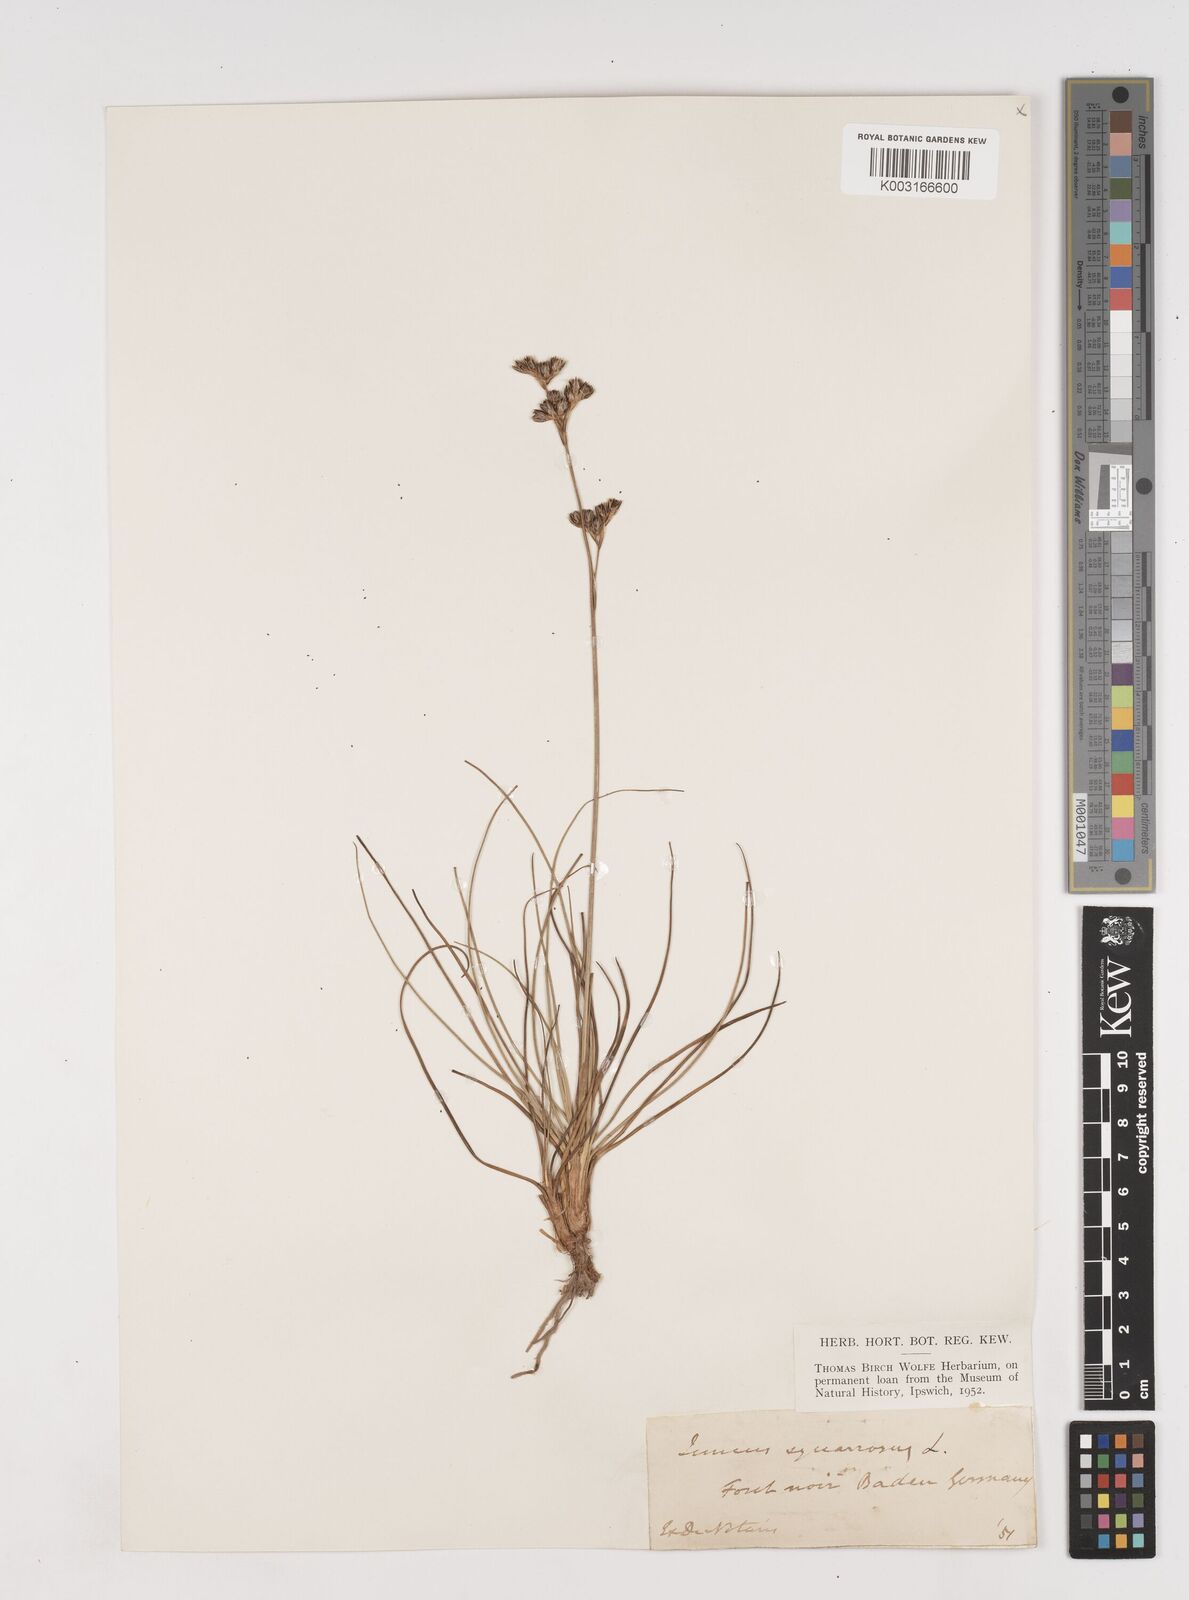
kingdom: Plantae
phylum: Tracheophyta
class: Liliopsida
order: Poales
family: Juncaceae
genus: Juncus
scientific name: Juncus squarrosus
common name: Heath rush
